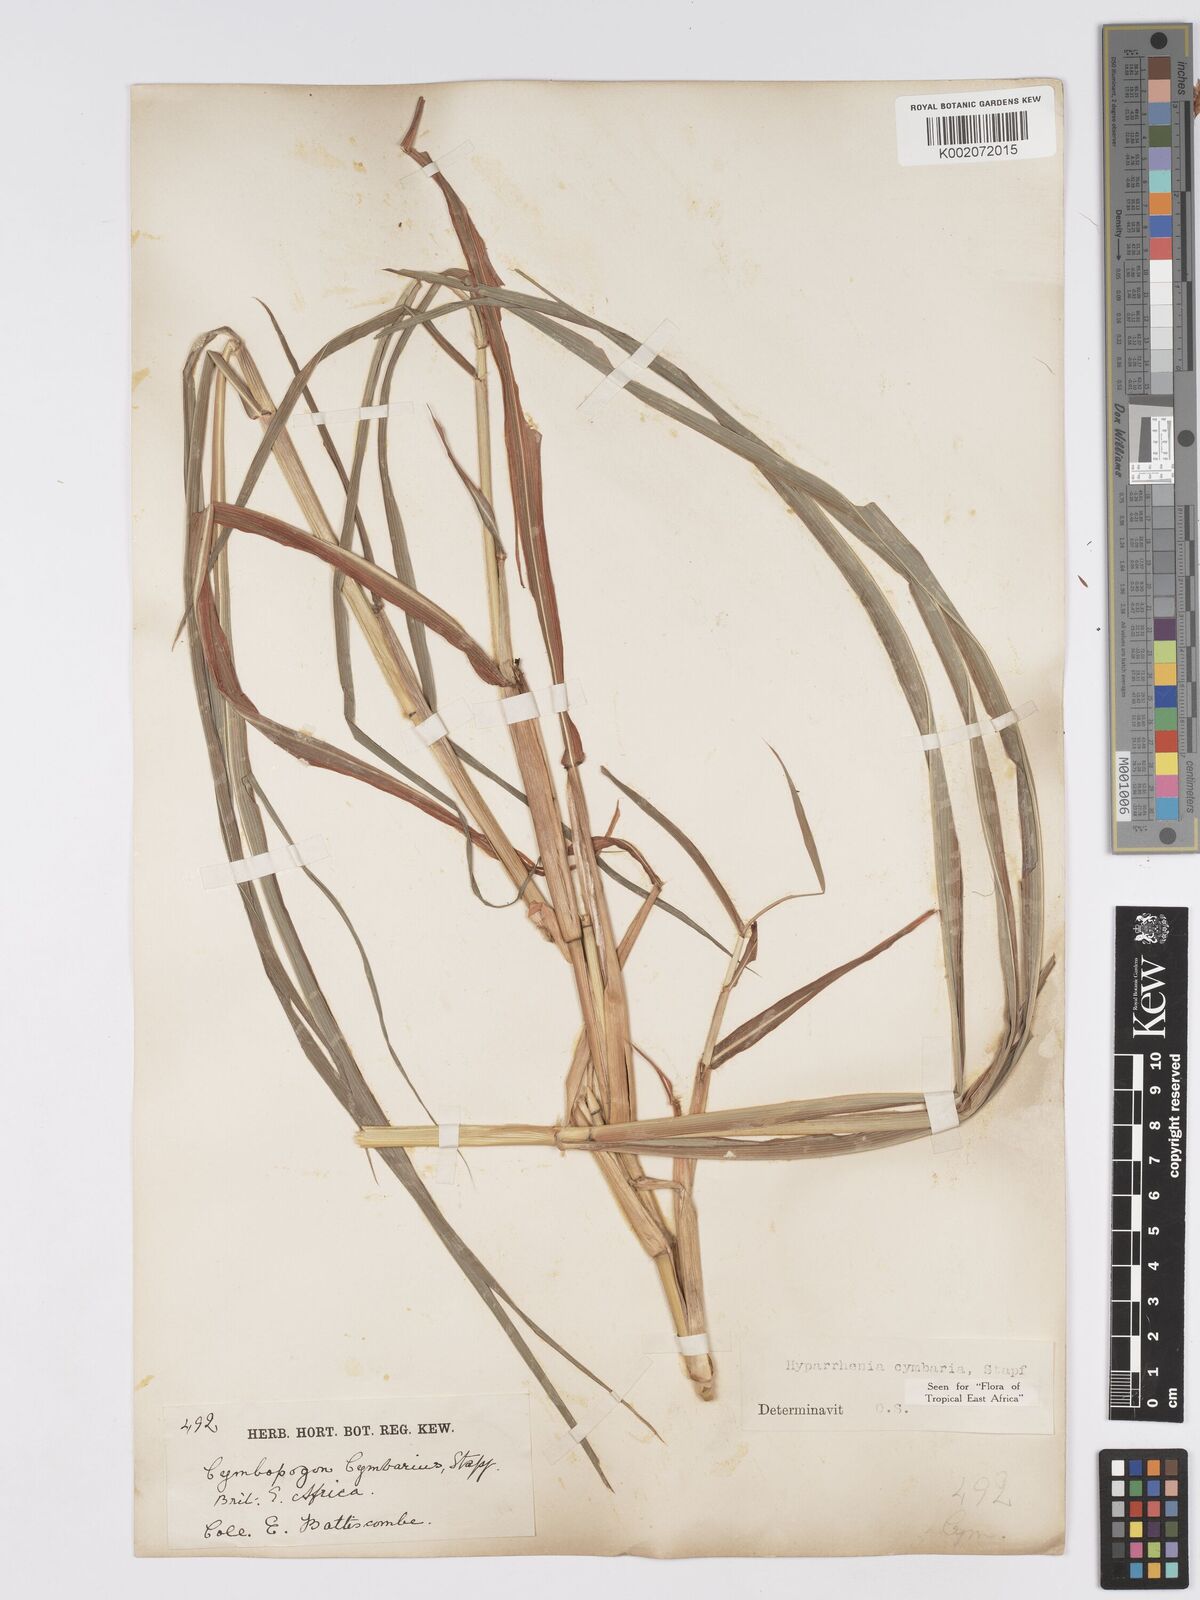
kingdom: Plantae
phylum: Tracheophyta
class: Liliopsida
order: Poales
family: Poaceae
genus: Hyparrhenia
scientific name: Hyparrhenia cymbaria
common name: Boat thatching grass
